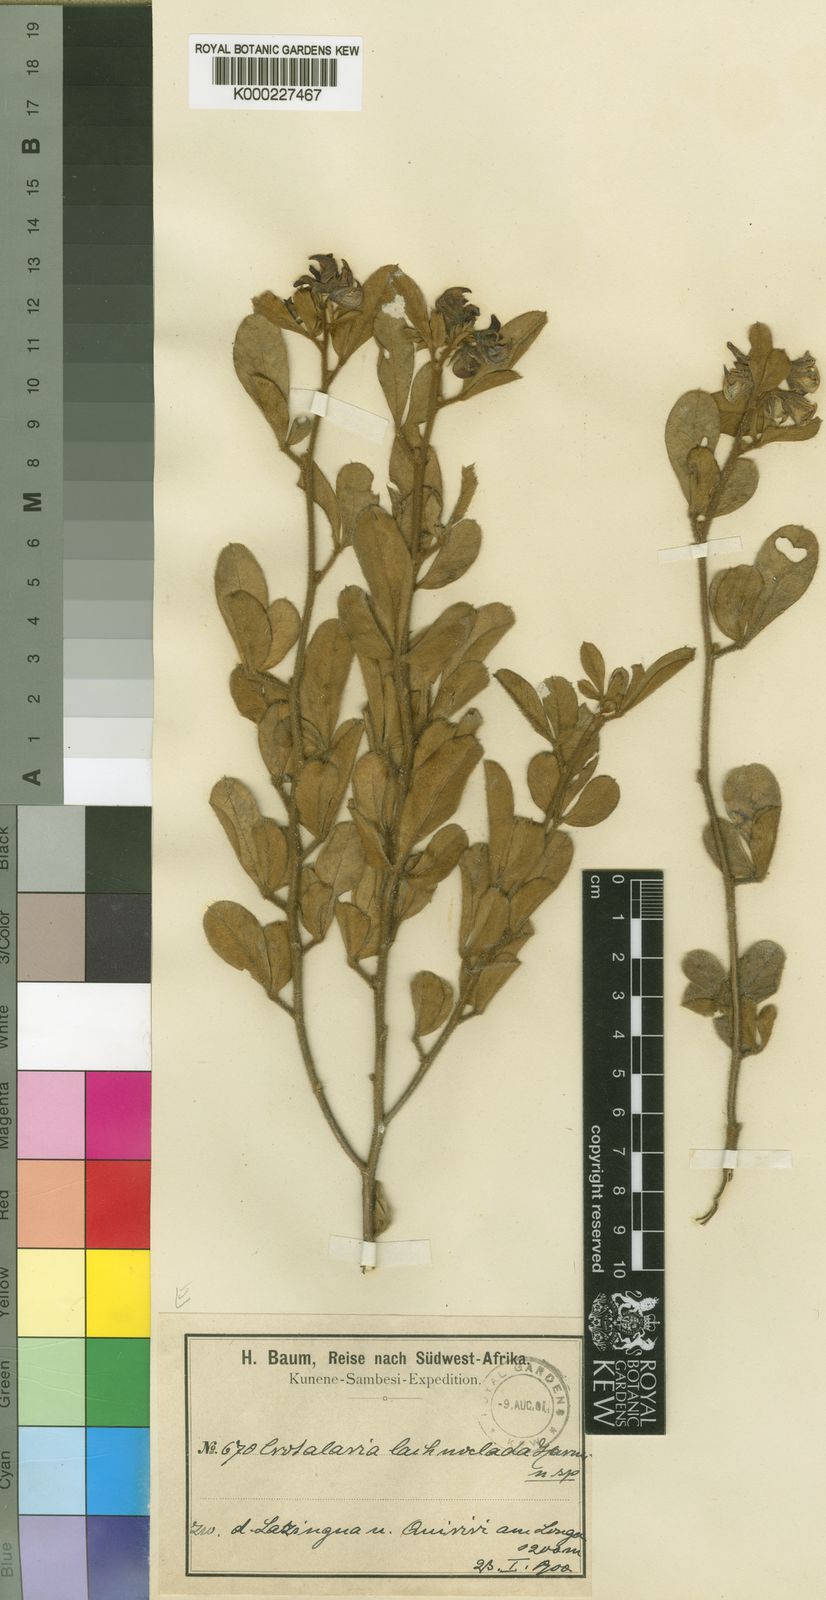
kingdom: Plantae
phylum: Tracheophyta
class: Magnoliopsida
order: Fabales
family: Fabaceae
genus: Crotalaria
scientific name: Crotalaria densicephala
